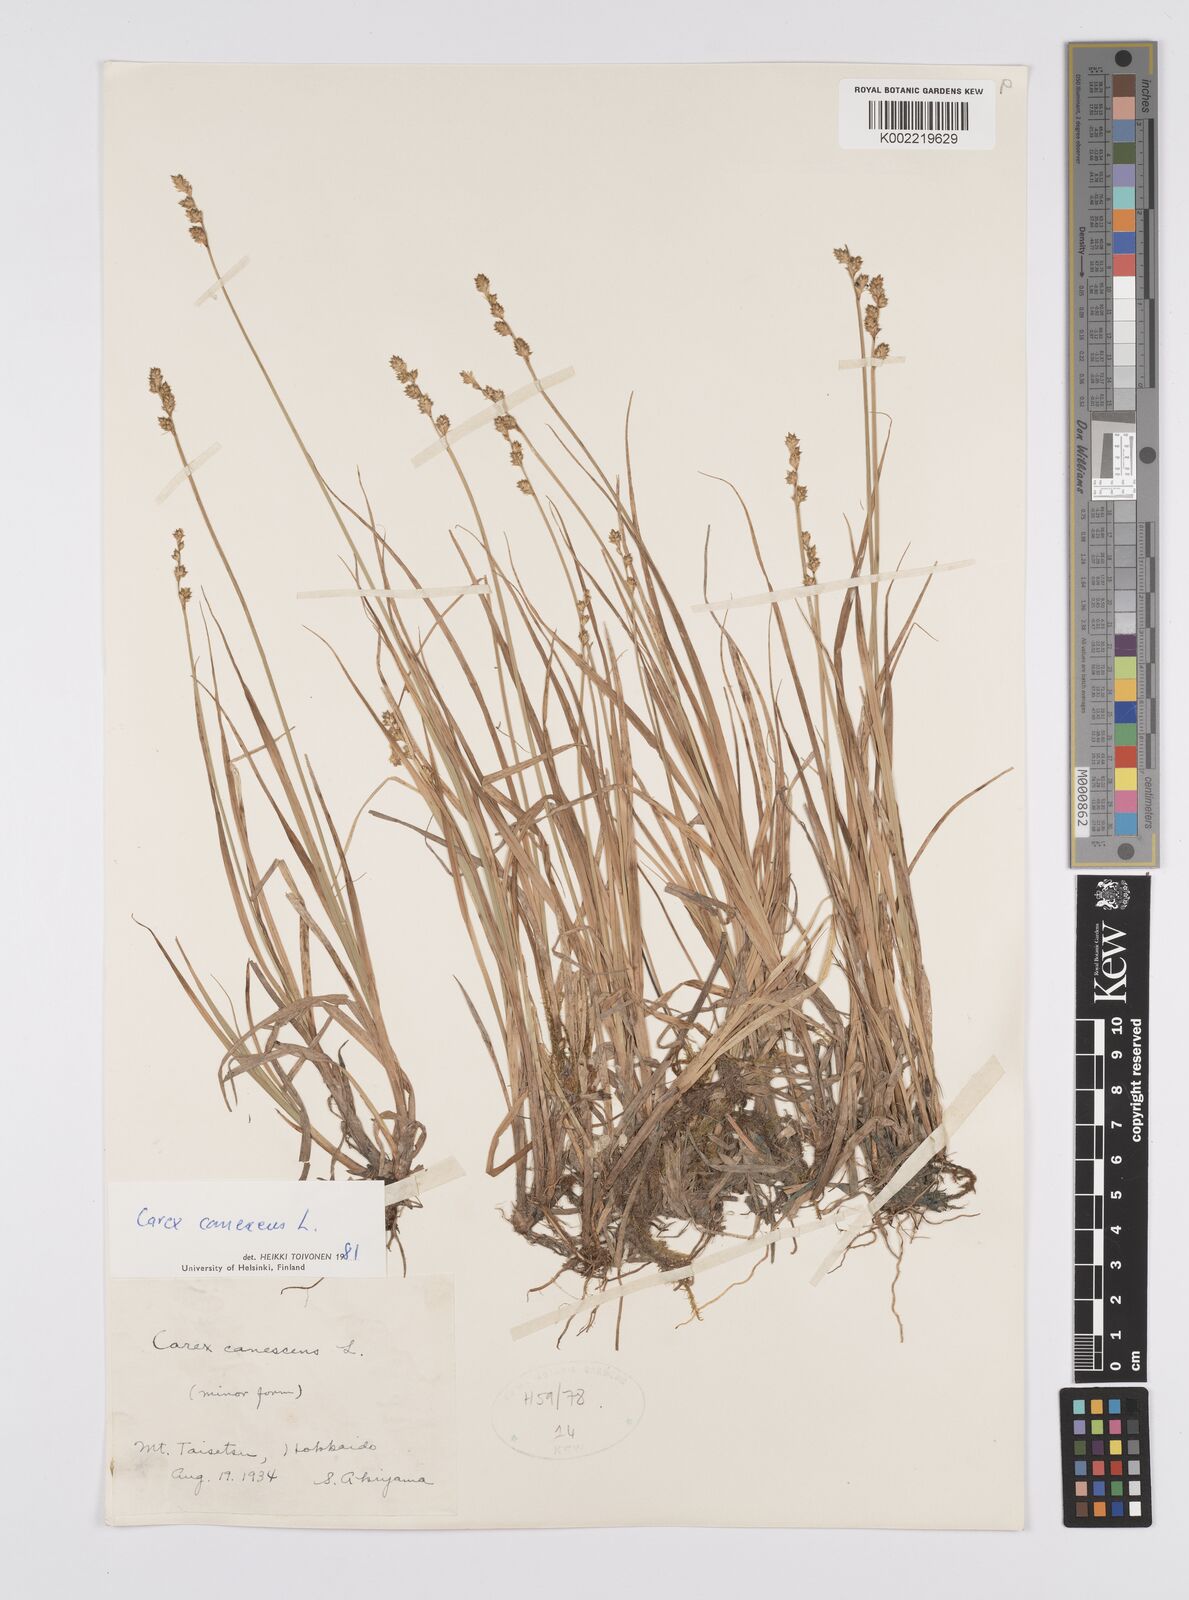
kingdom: Plantae
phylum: Tracheophyta
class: Liliopsida
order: Poales
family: Cyperaceae
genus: Carex
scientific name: Carex canescens
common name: White sedge
